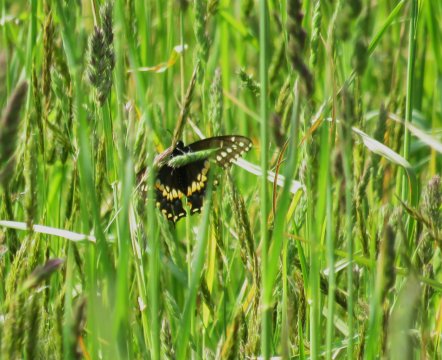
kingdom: Animalia
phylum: Arthropoda
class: Insecta
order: Lepidoptera
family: Papilionidae
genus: Papilio
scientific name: Papilio polyxenes
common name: Black Swallowtail
